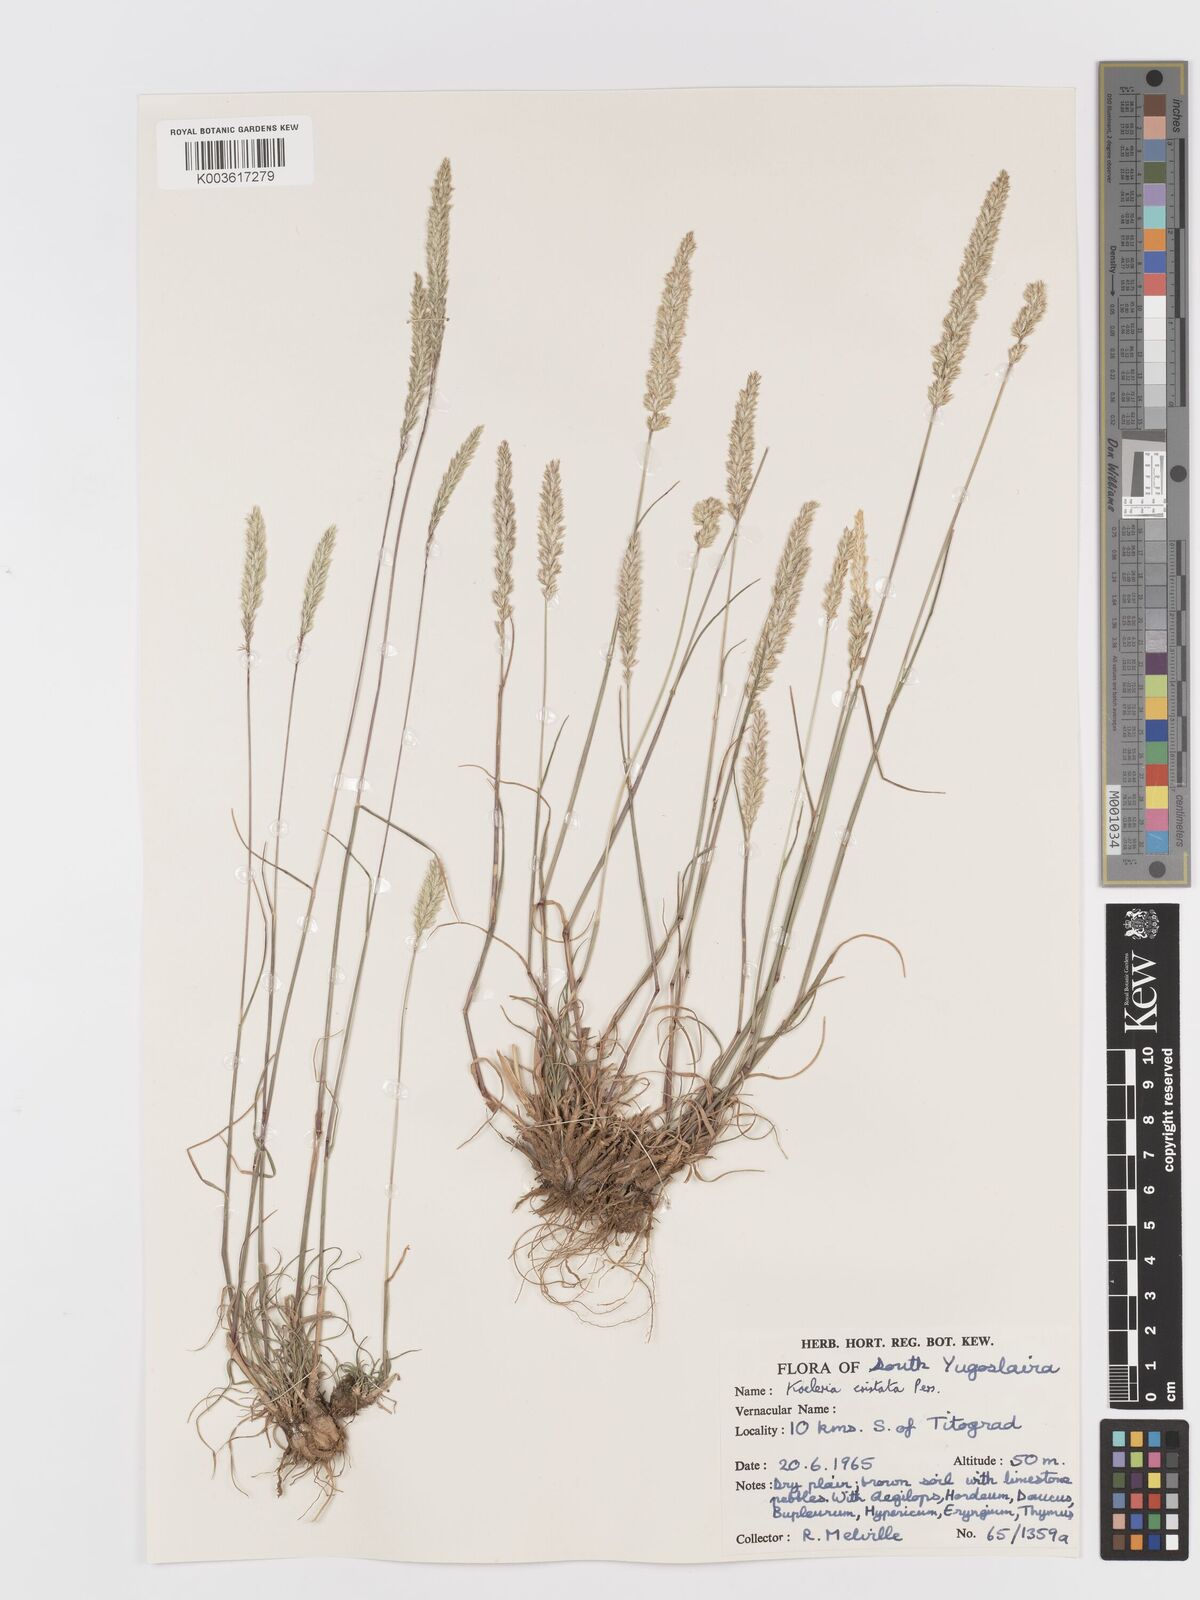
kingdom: Plantae
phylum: Tracheophyta
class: Liliopsida
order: Poales
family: Poaceae
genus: Koeleria
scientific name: Koeleria macrantha
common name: Crested hair-grass
